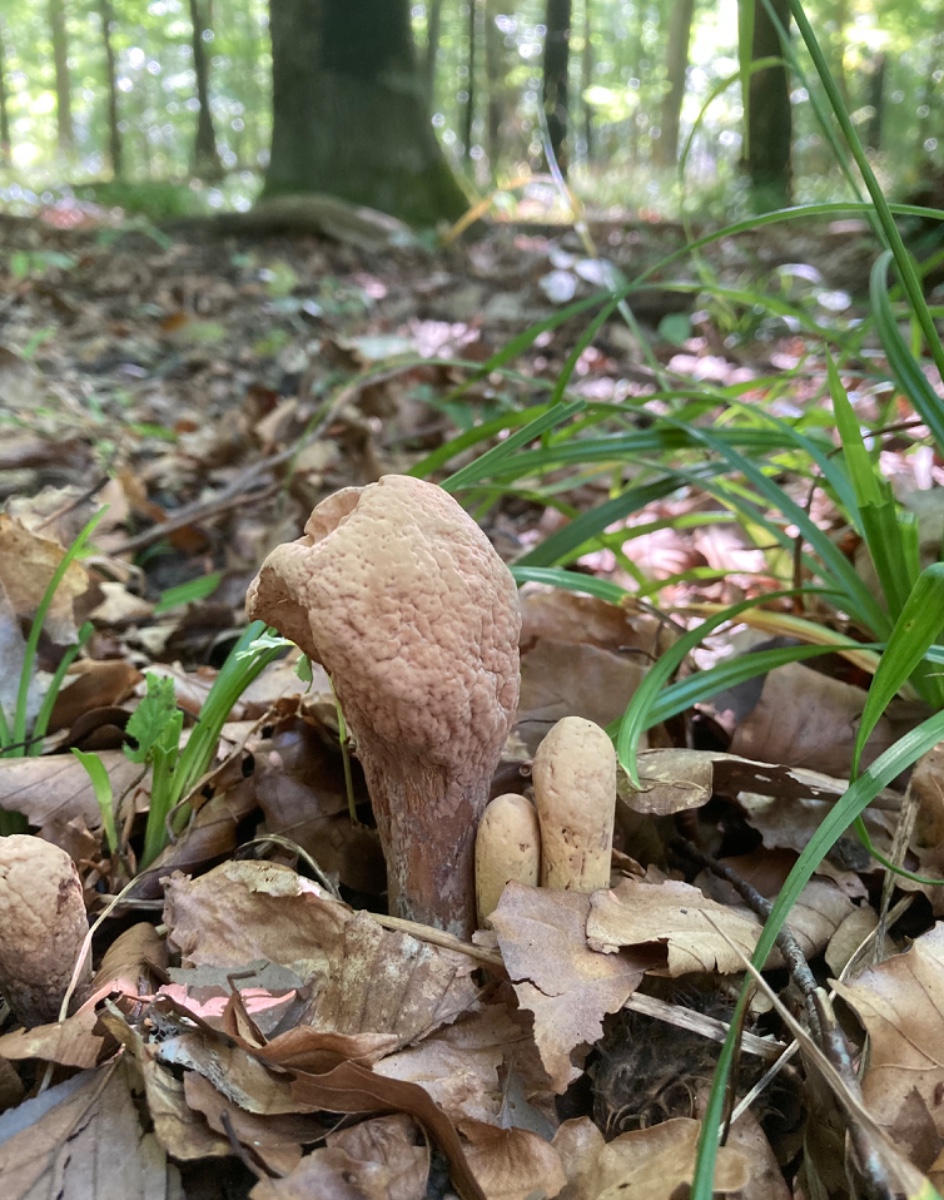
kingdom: Fungi
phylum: Basidiomycota
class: Agaricomycetes
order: Gomphales
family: Clavariadelphaceae
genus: Clavariadelphus
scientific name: Clavariadelphus pistillaris
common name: herkules-kæmpekølle
